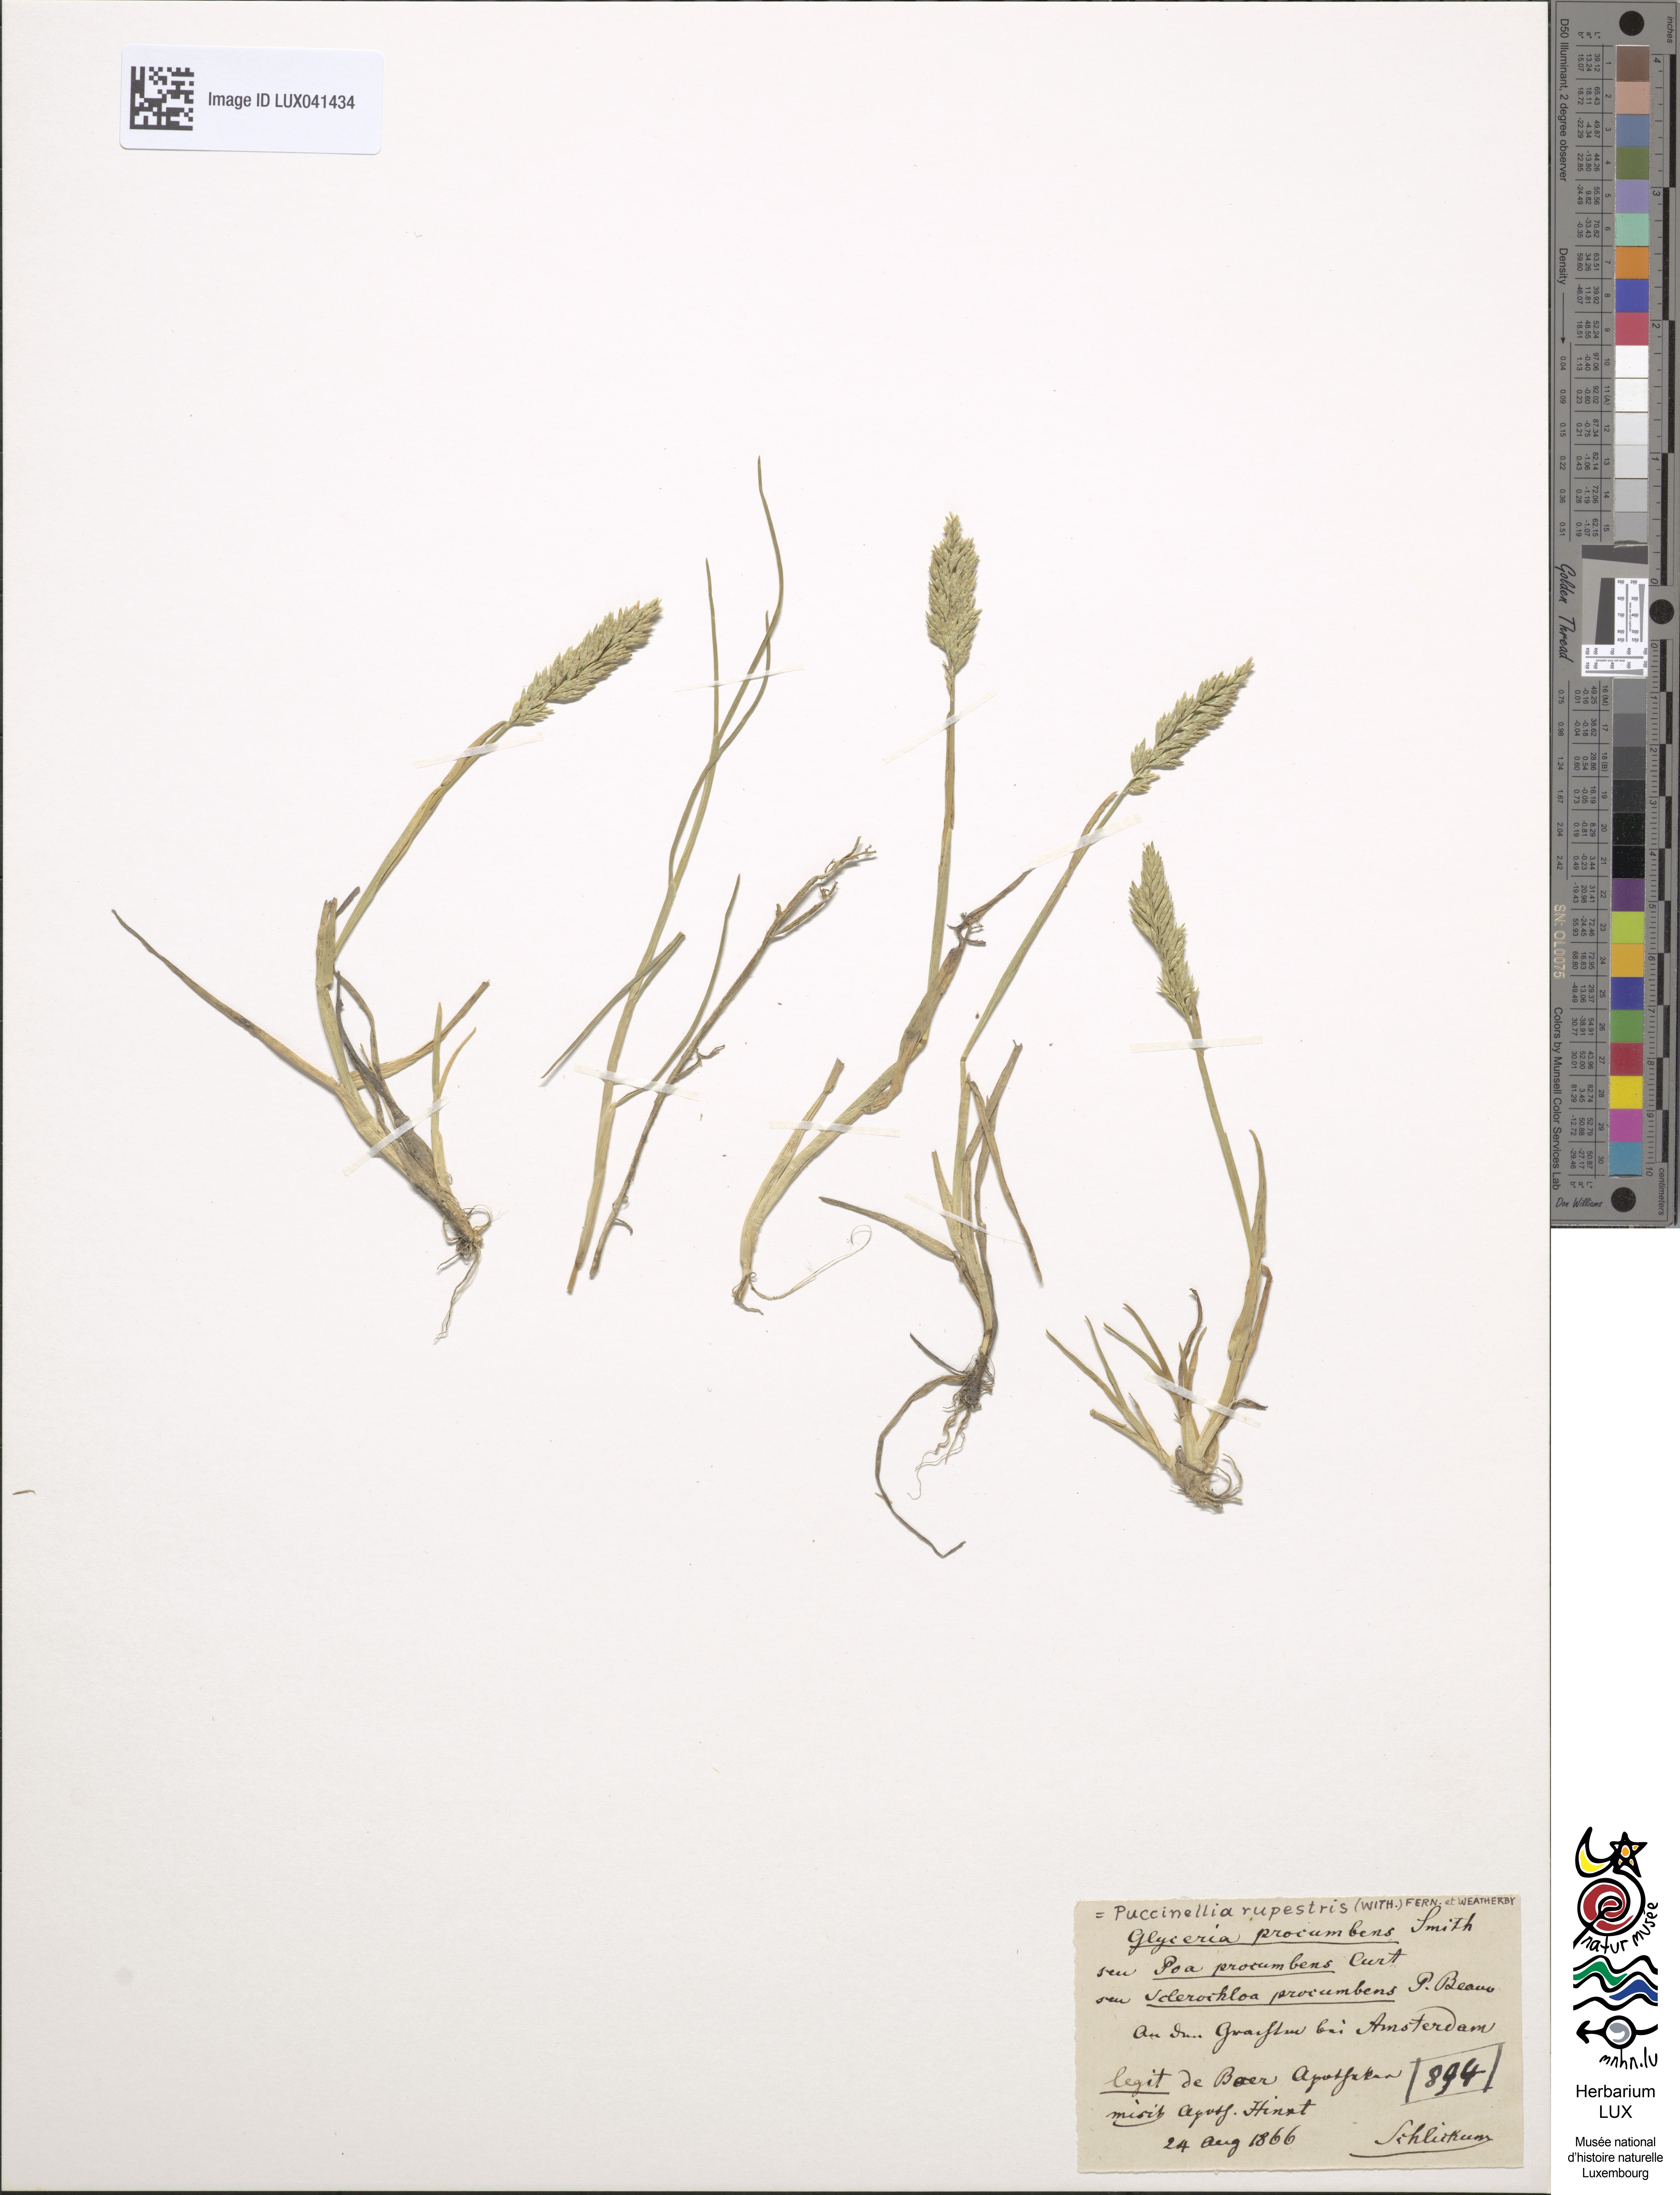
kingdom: Plantae
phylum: Tracheophyta
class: Liliopsida
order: Poales
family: Poaceae
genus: Puccinellia
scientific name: Puccinellia rupestris
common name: Stiff saltmarsh-grass
